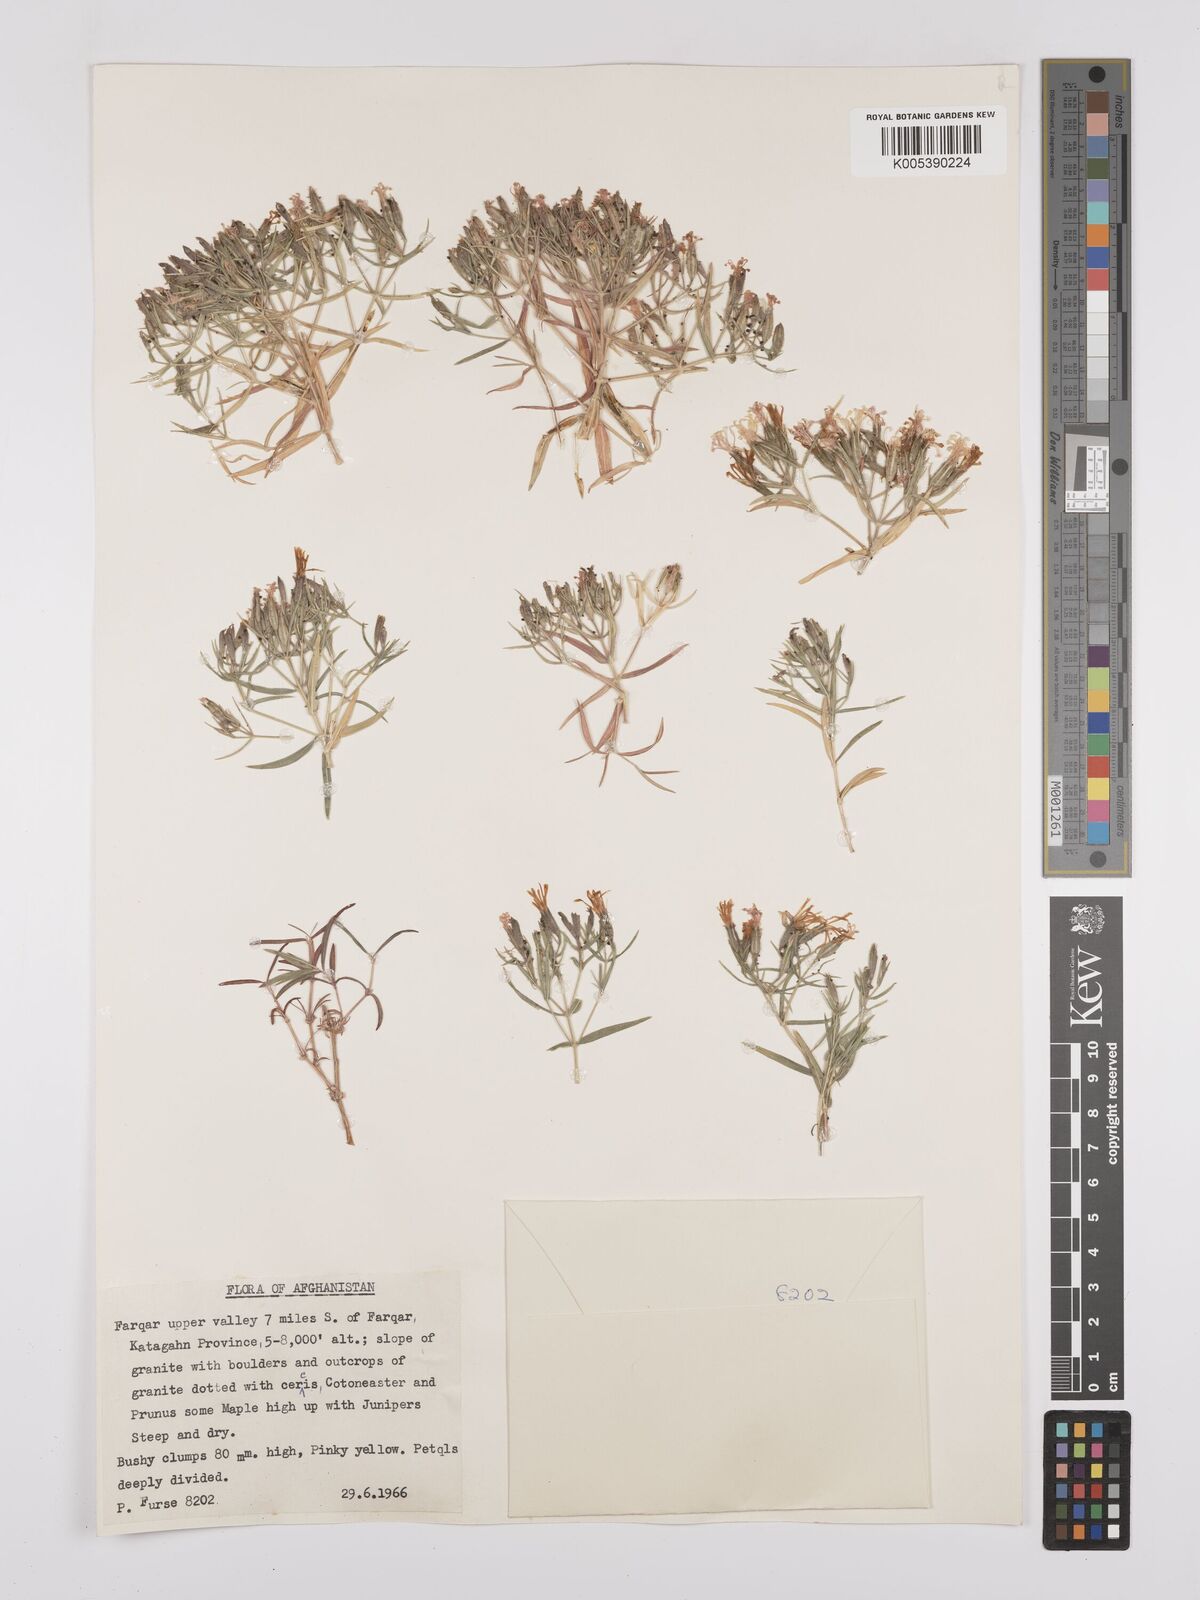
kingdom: Plantae
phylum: Tracheophyta
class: Magnoliopsida
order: Caryophyllales
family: Caryophyllaceae
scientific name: Caryophyllaceae
